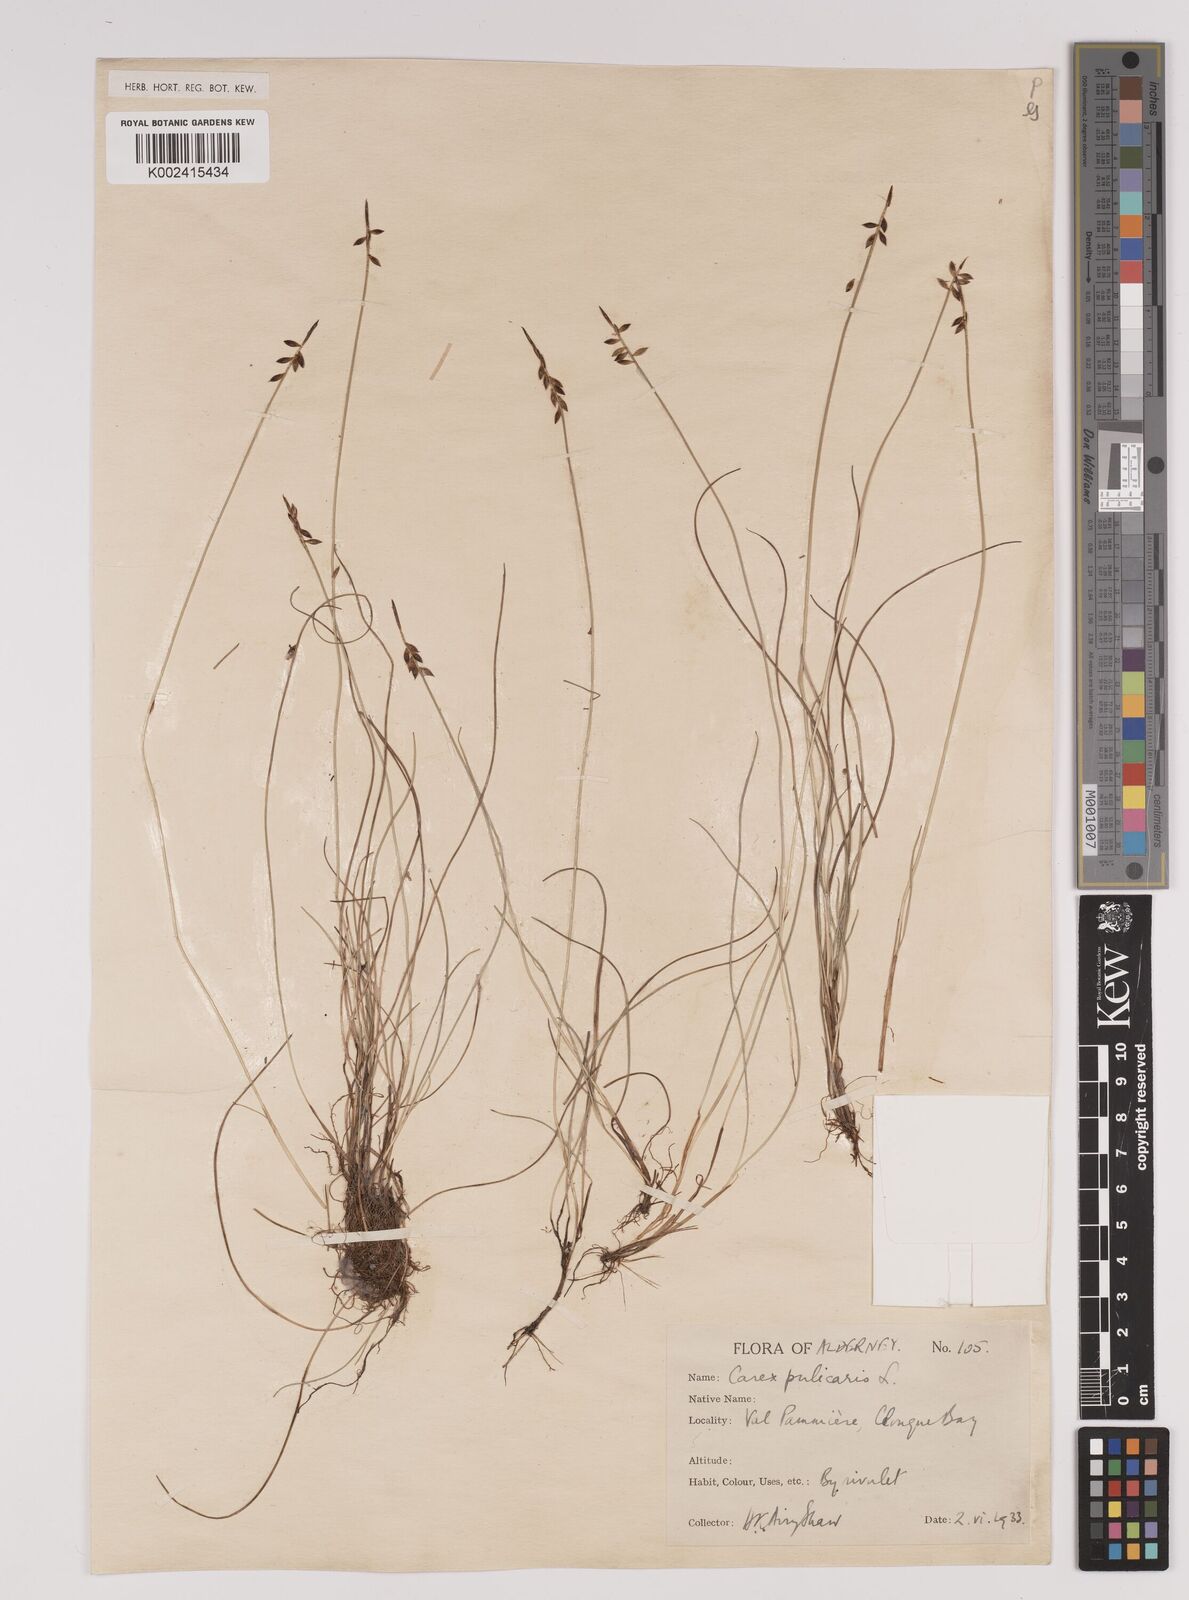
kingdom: Plantae
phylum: Tracheophyta
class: Liliopsida
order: Poales
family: Cyperaceae
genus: Carex
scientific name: Carex pulicaris
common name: Flea sedge
